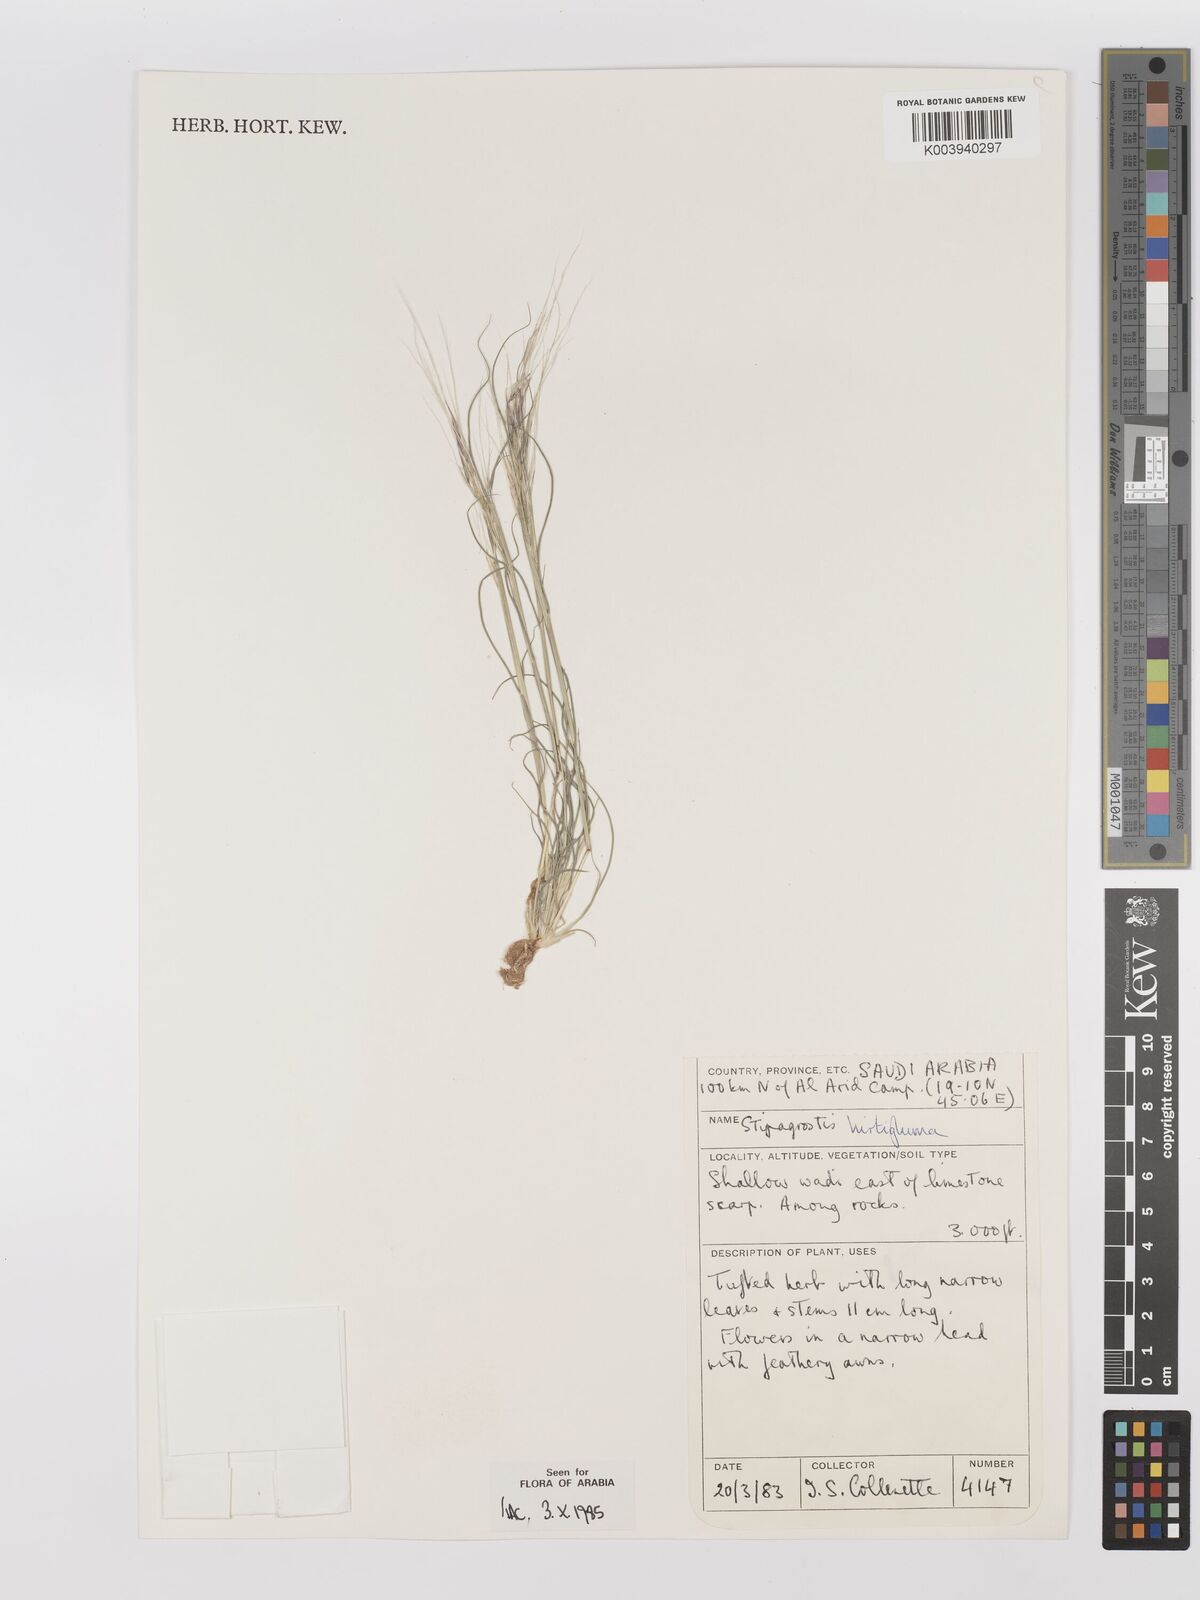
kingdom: Plantae
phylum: Tracheophyta
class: Liliopsida
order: Poales
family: Poaceae
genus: Stipagrostis
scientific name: Stipagrostis hirtigluma
